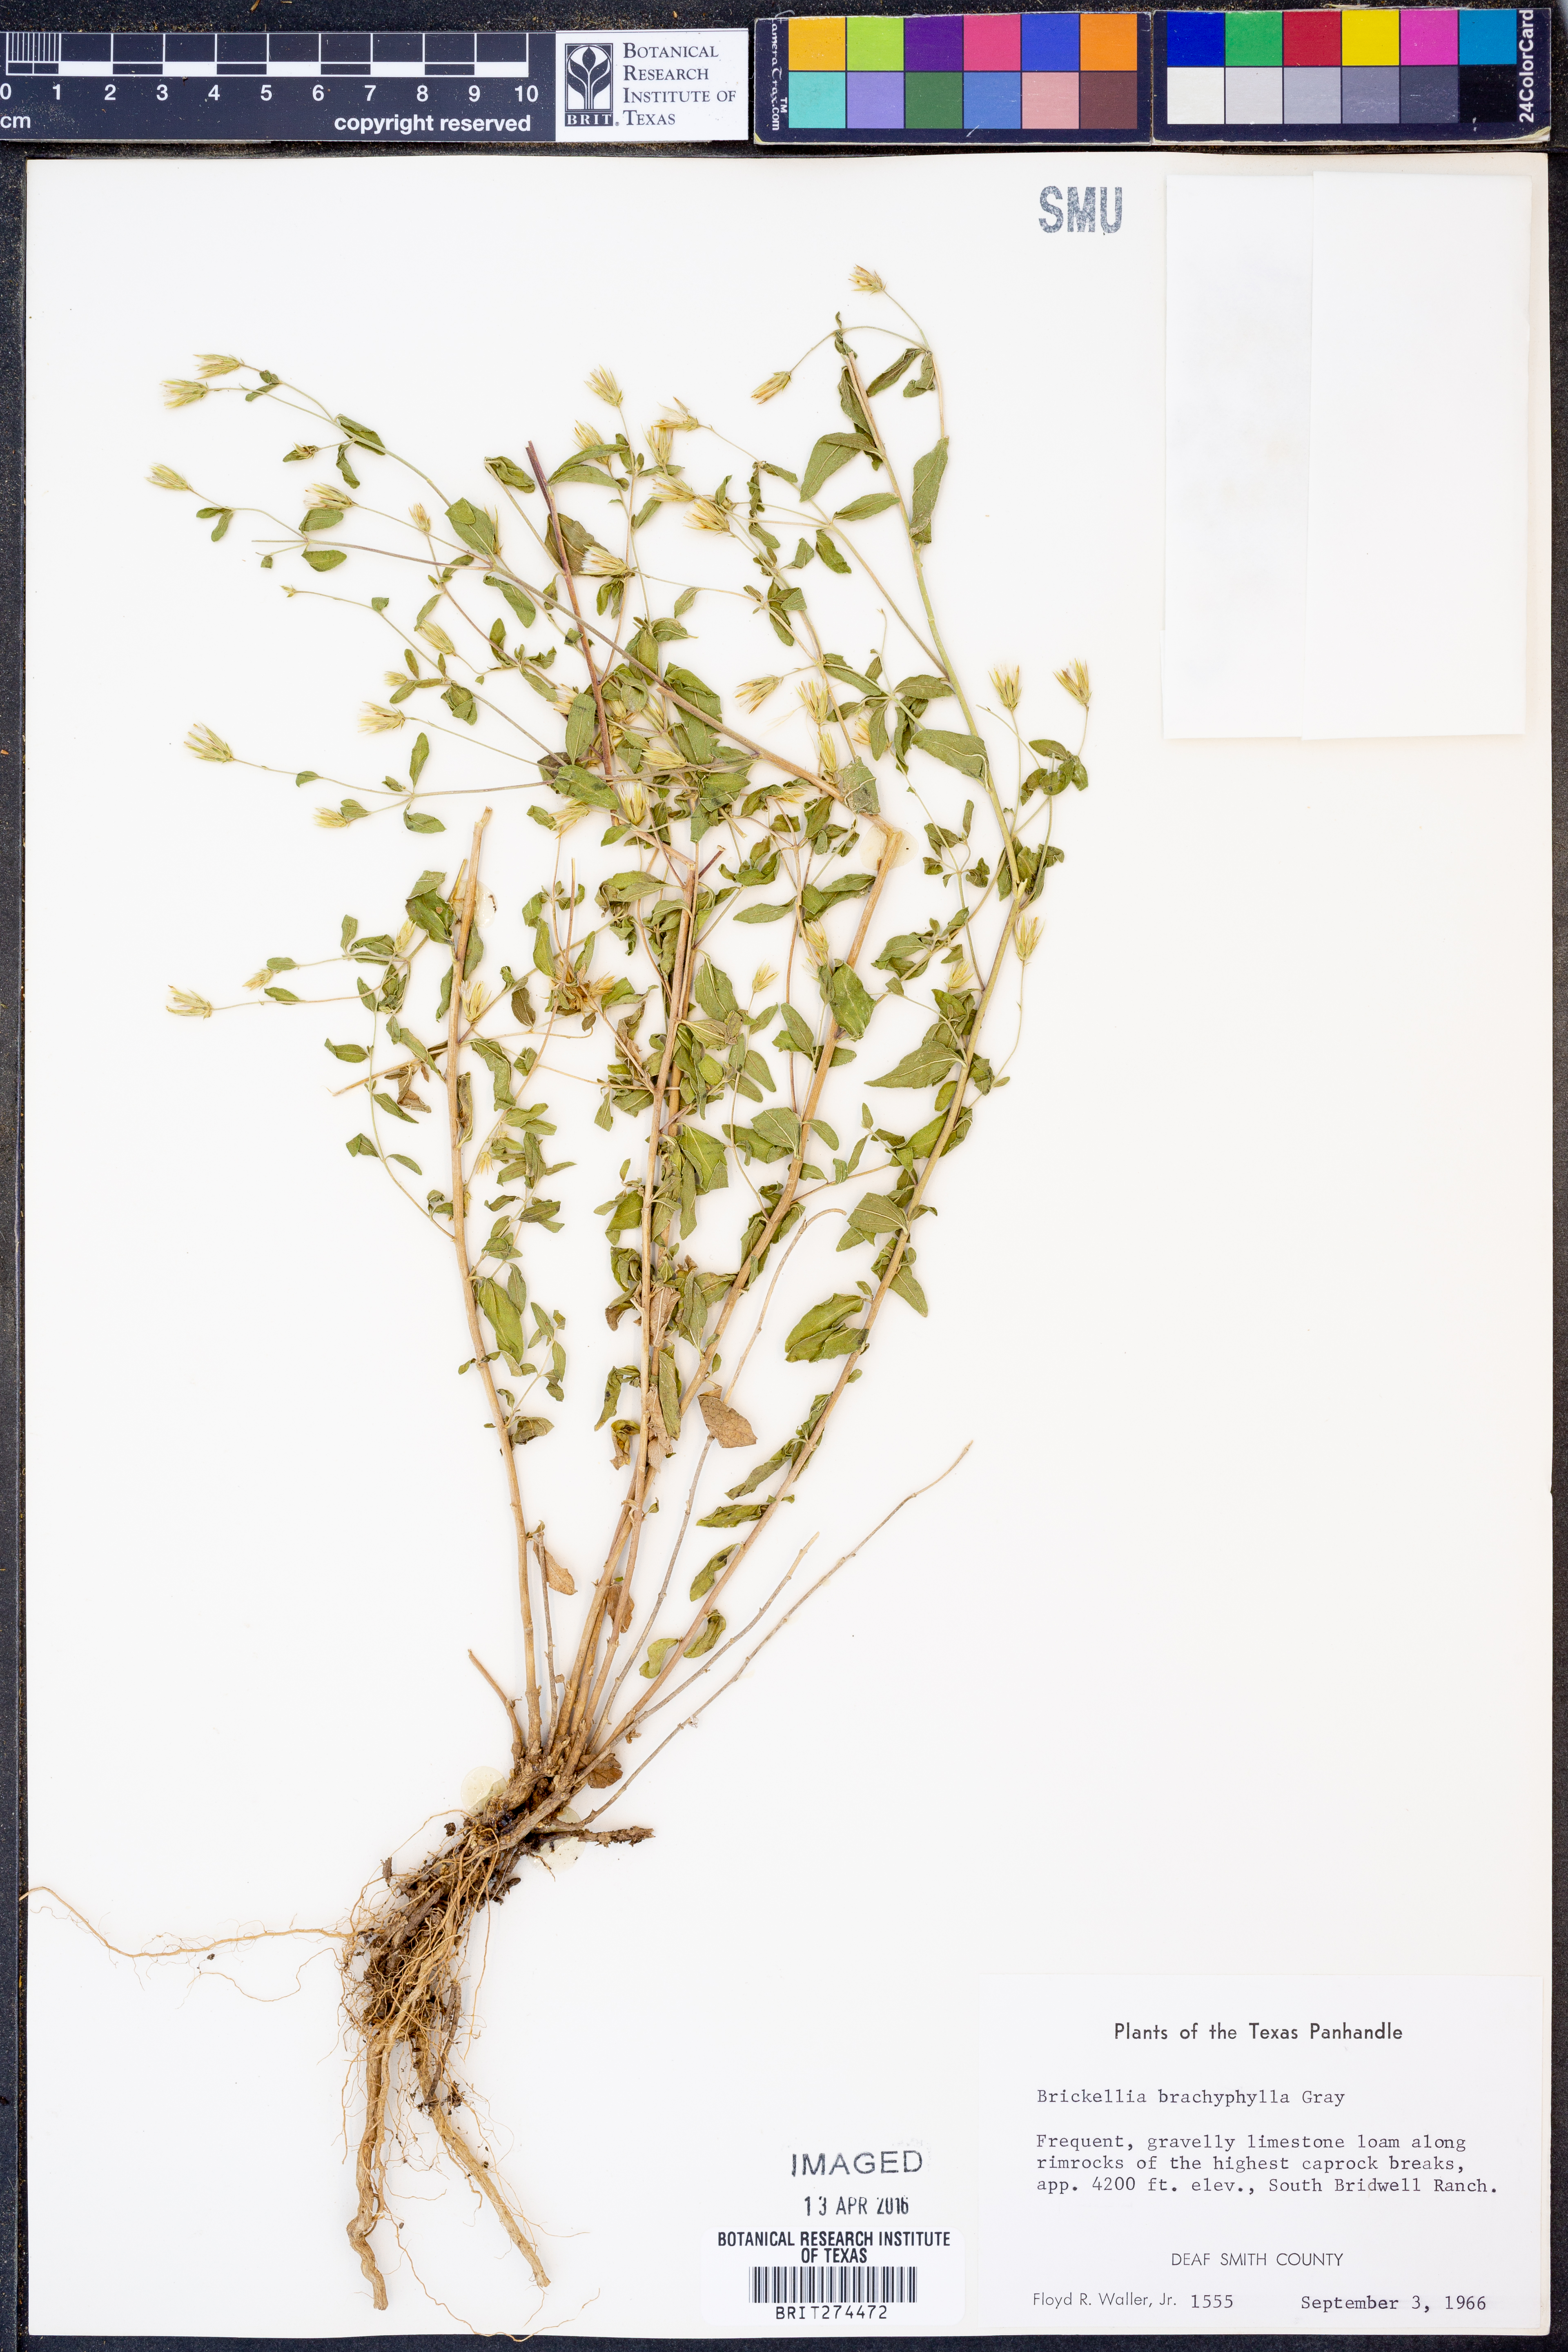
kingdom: Plantae
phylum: Tracheophyta
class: Magnoliopsida
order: Asterales
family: Asteraceae
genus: Brickellia
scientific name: Brickellia brachyphylla
